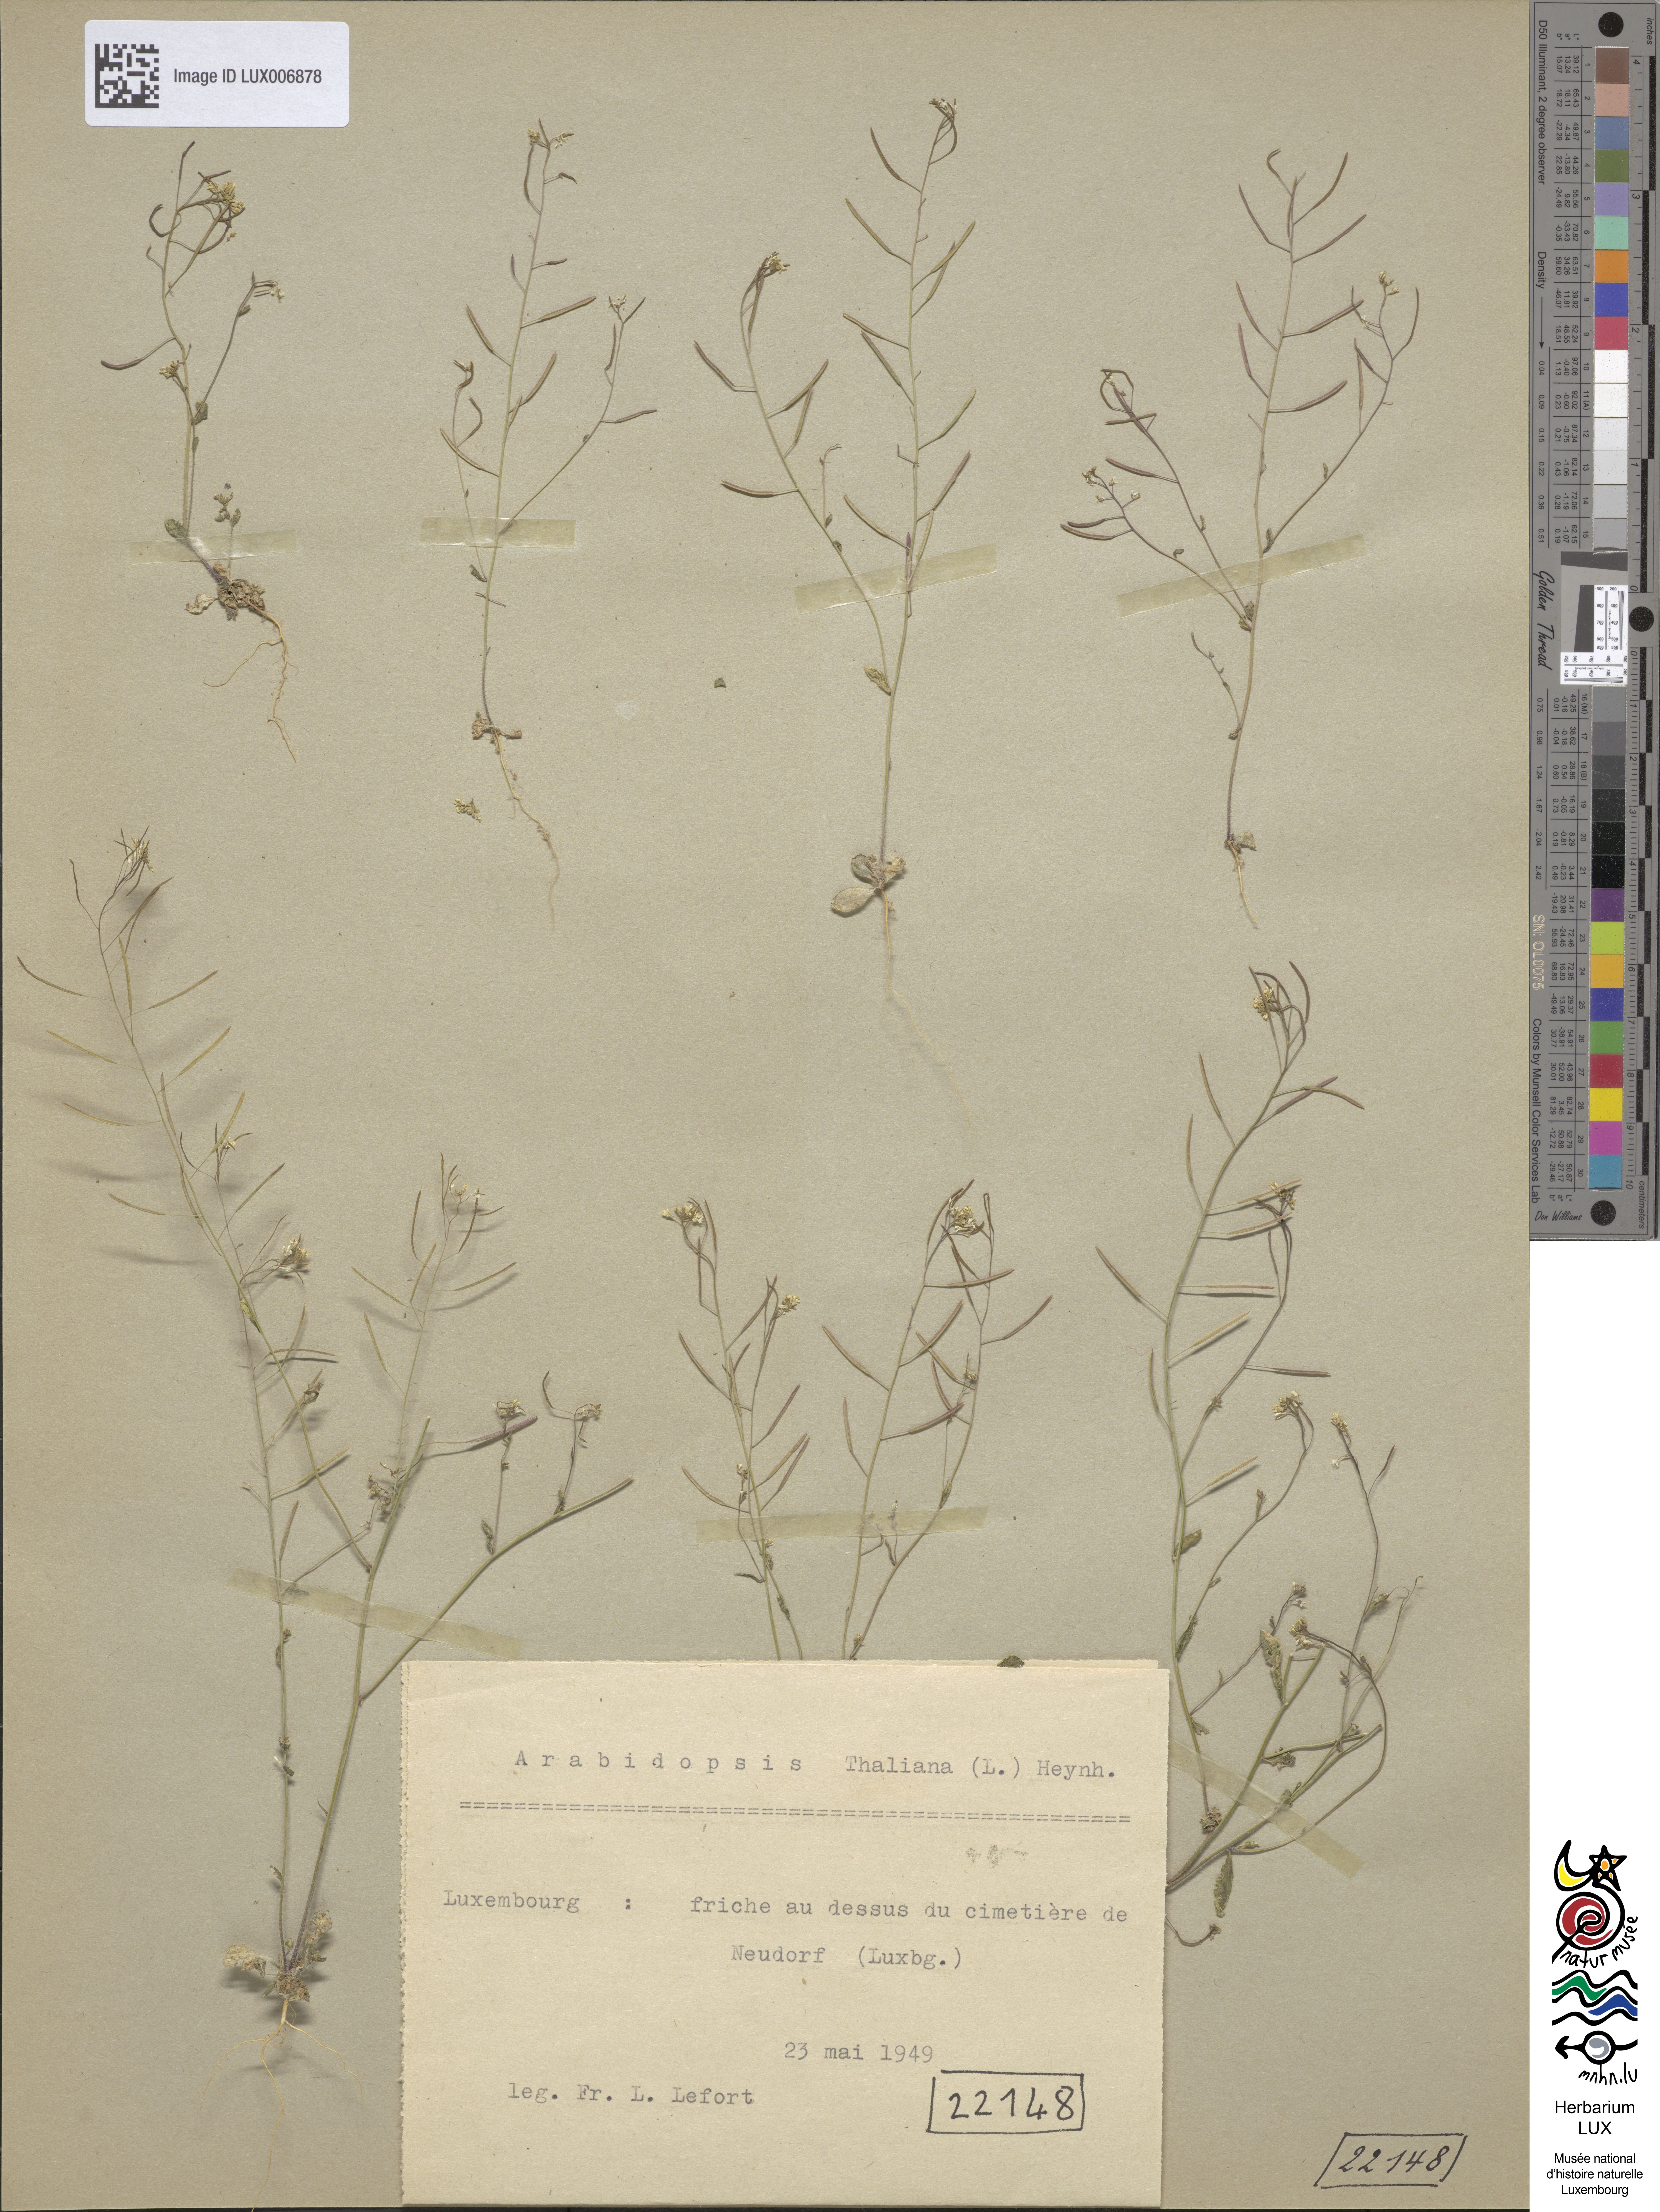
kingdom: Plantae
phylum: Tracheophyta
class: Magnoliopsida
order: Brassicales
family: Brassicaceae
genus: Arabidopsis
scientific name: Arabidopsis thaliana
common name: Thale cress
